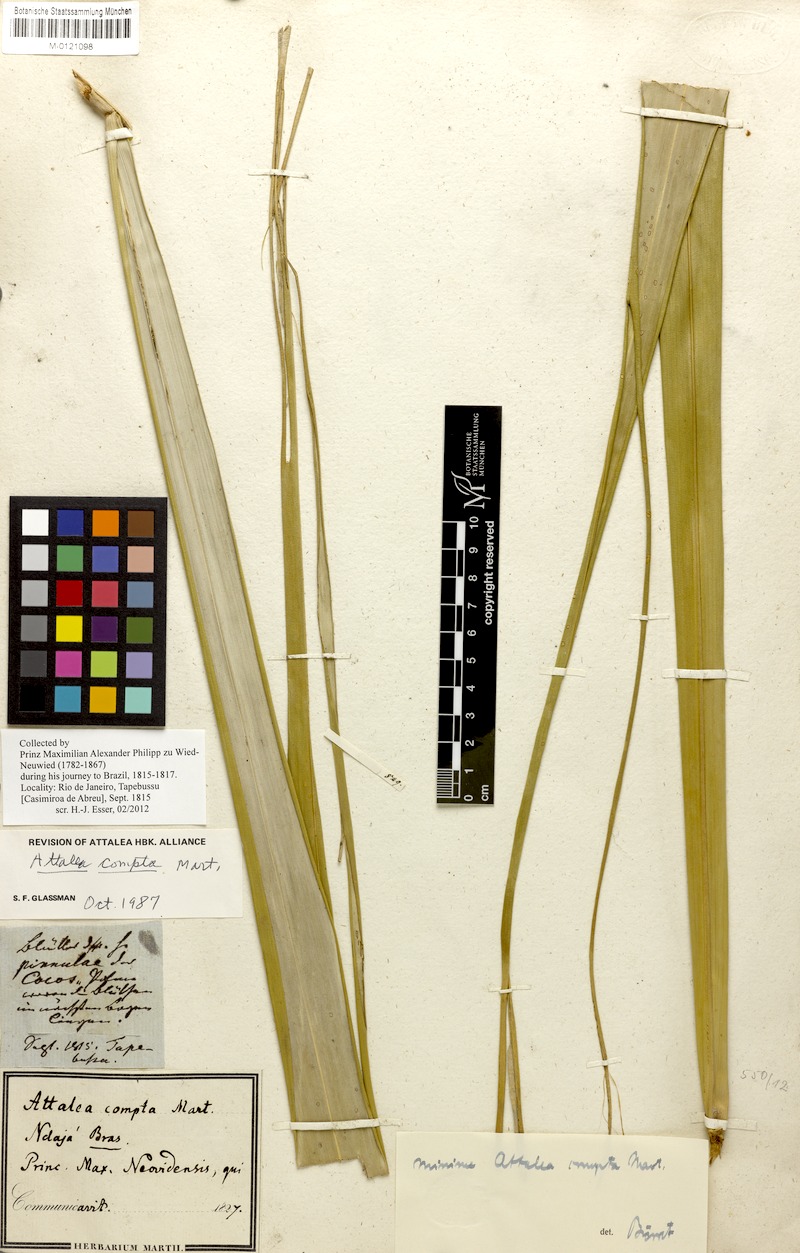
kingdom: Plantae
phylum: Tracheophyta
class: Liliopsida
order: Arecales
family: Arecaceae
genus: Attalea
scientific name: Attalea compta
